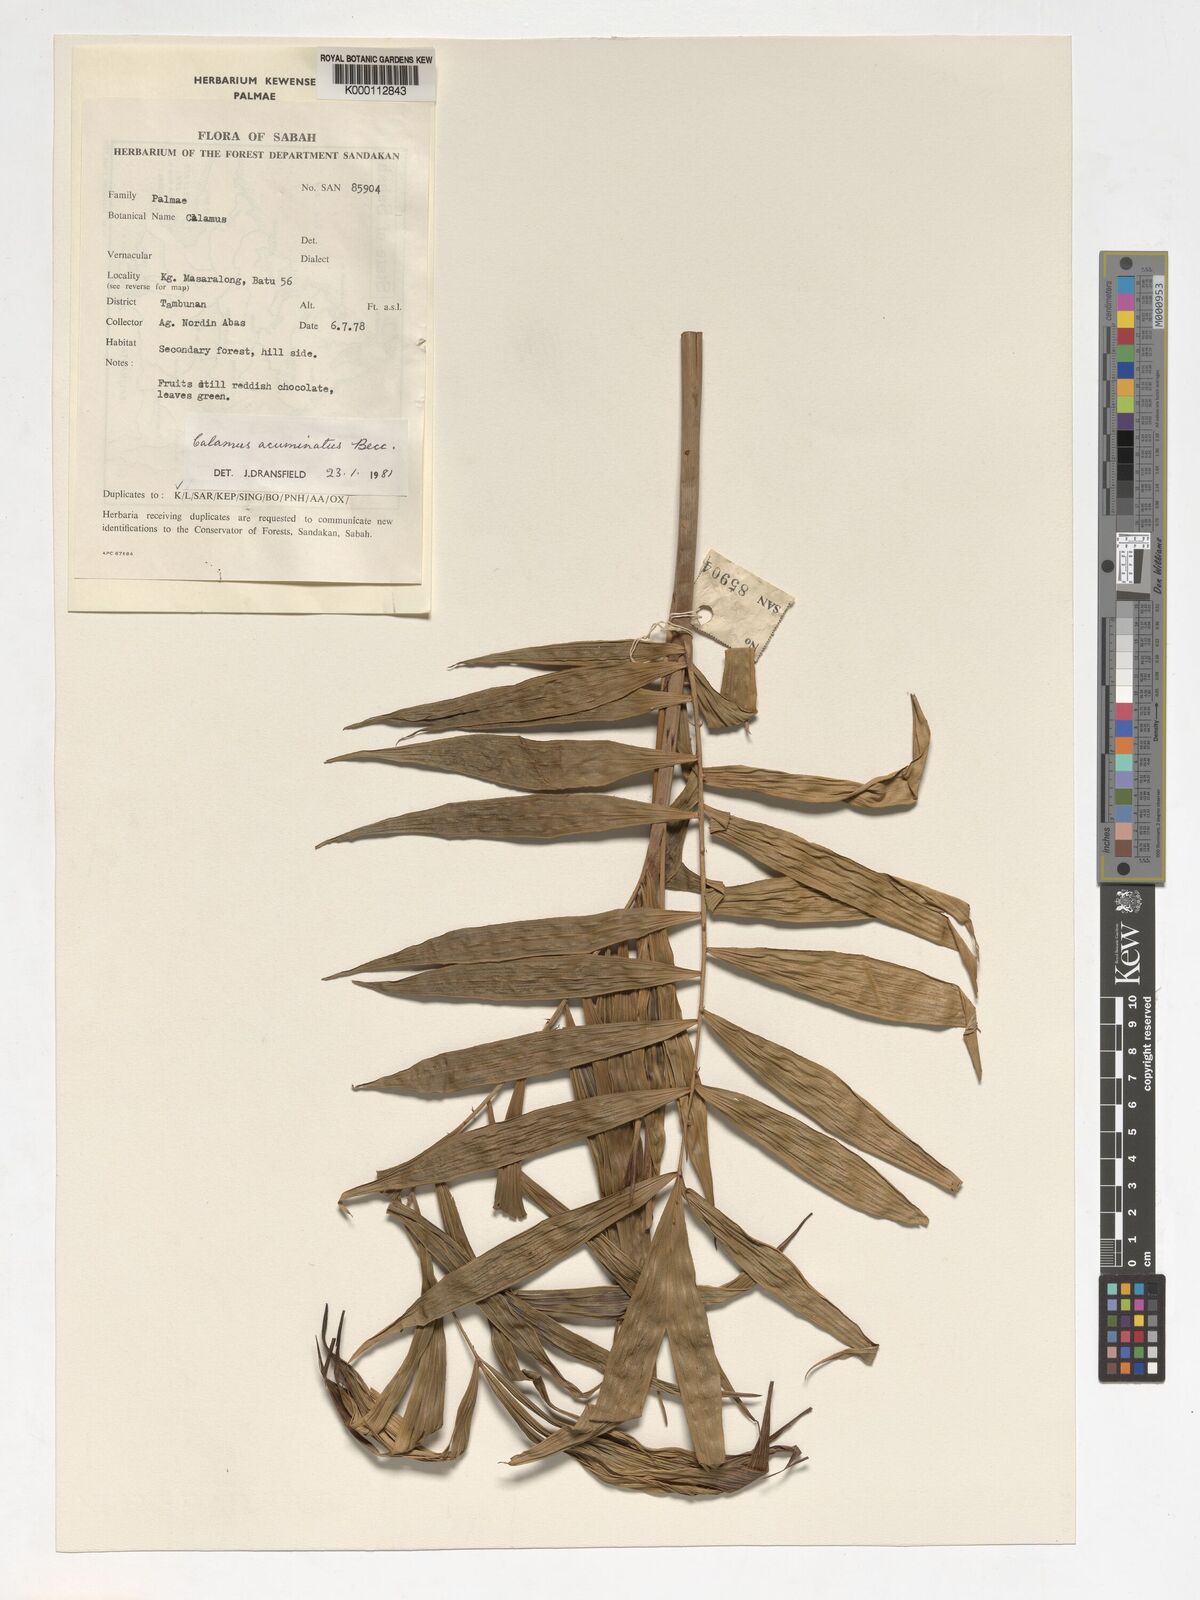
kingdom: Plantae
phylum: Tracheophyta
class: Liliopsida
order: Arecales
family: Arecaceae
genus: Calamus
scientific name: Calamus javensis
